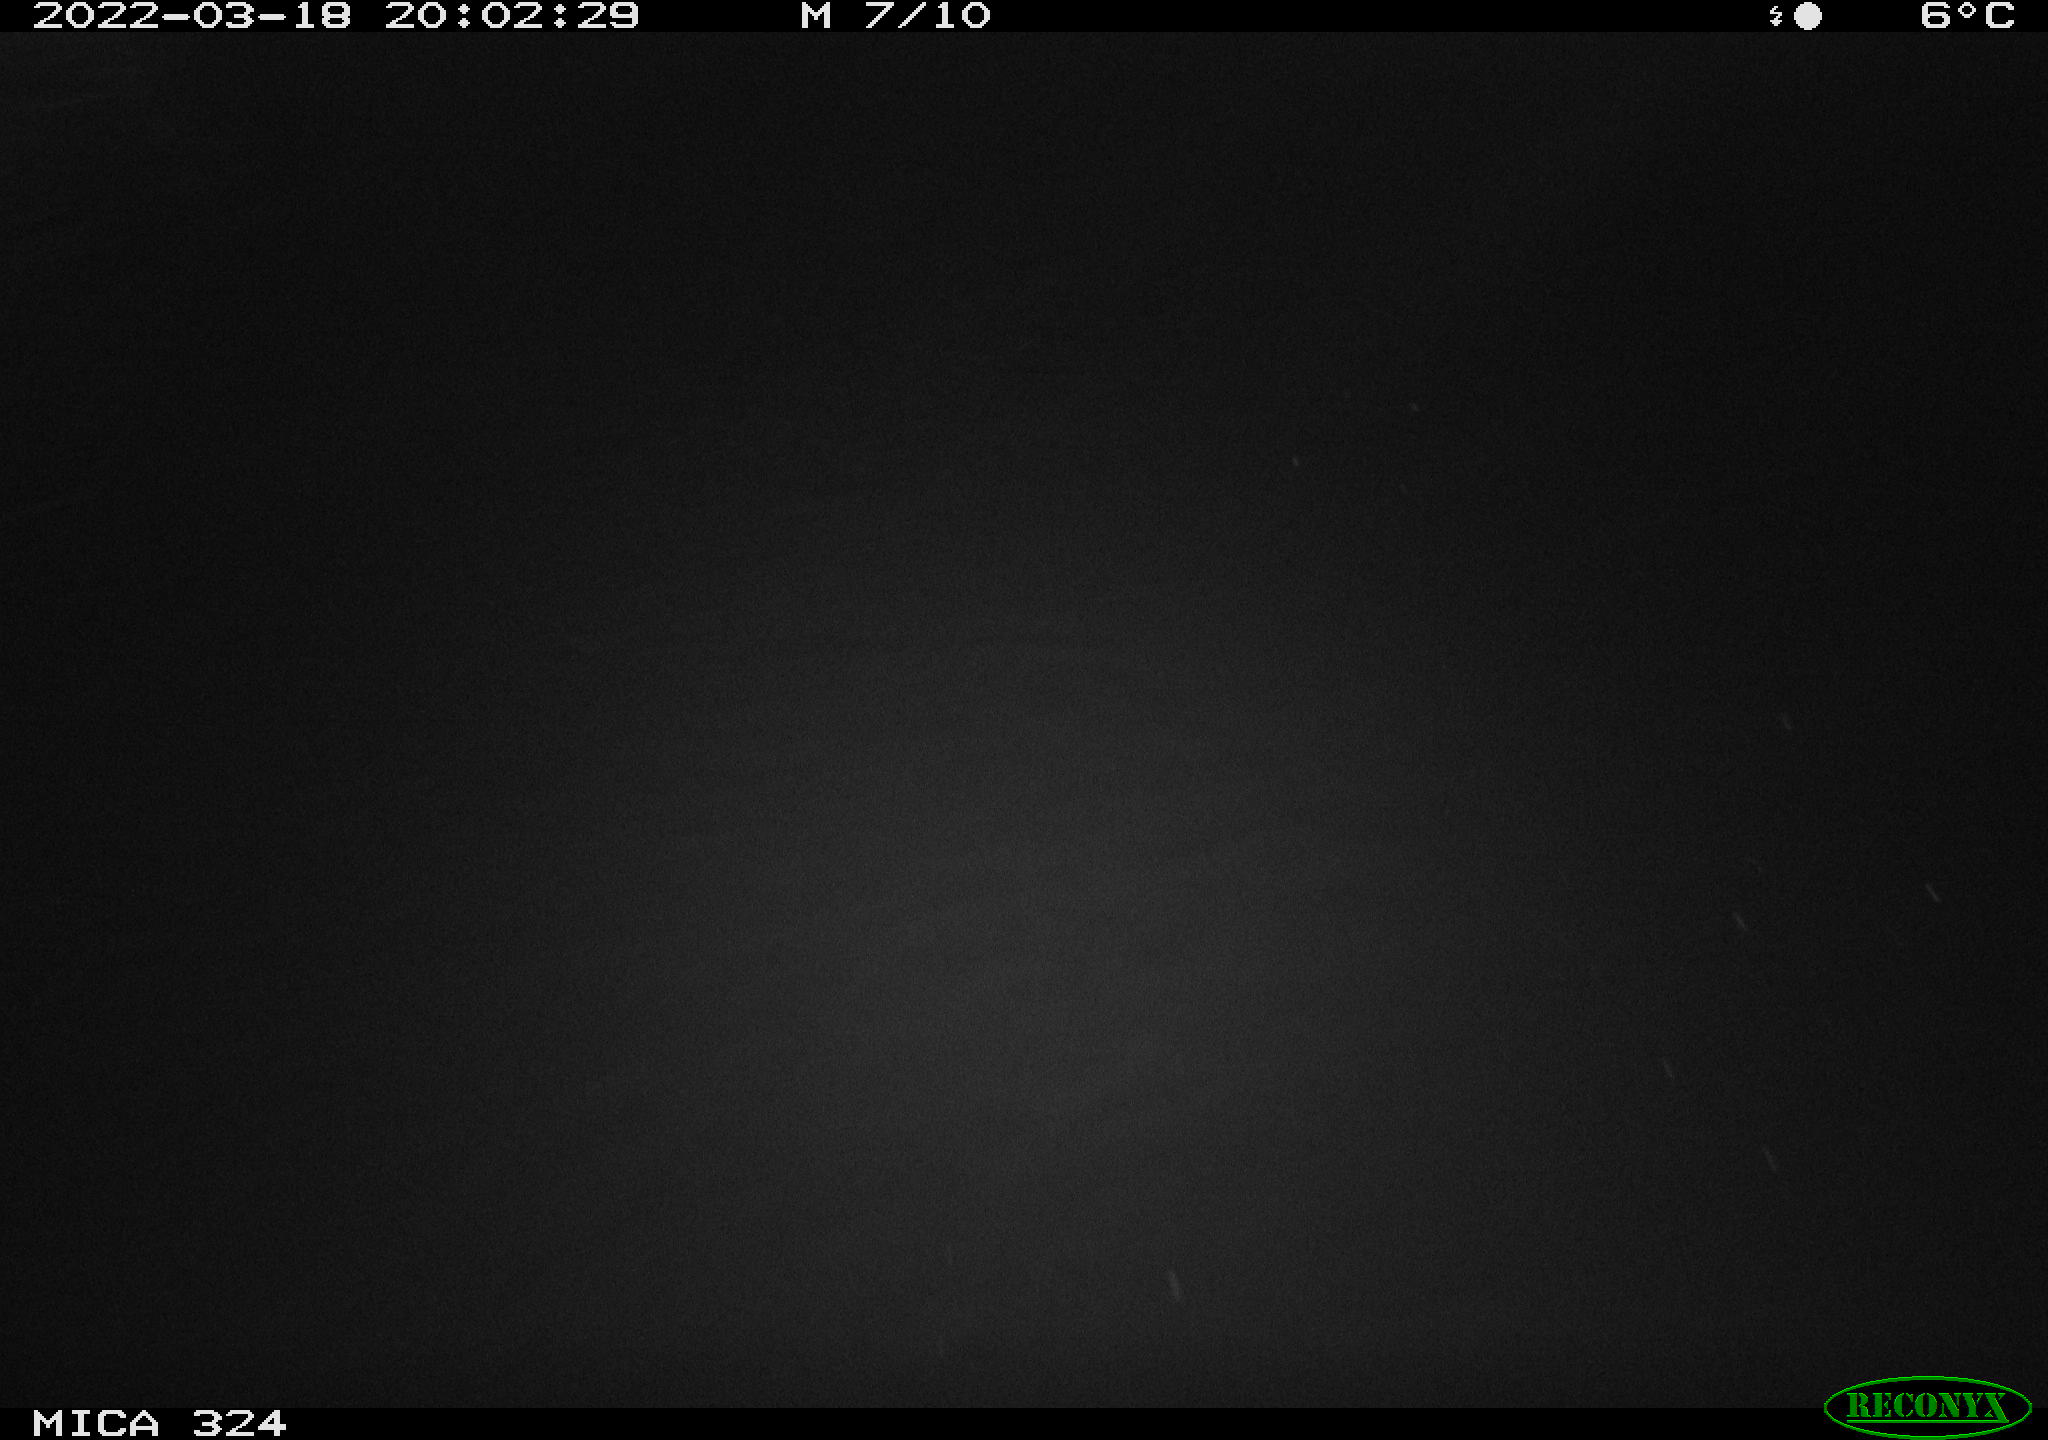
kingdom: Animalia
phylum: Chordata
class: Mammalia
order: Rodentia
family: Cricetidae
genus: Ondatra
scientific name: Ondatra zibethicus
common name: Muskrat
